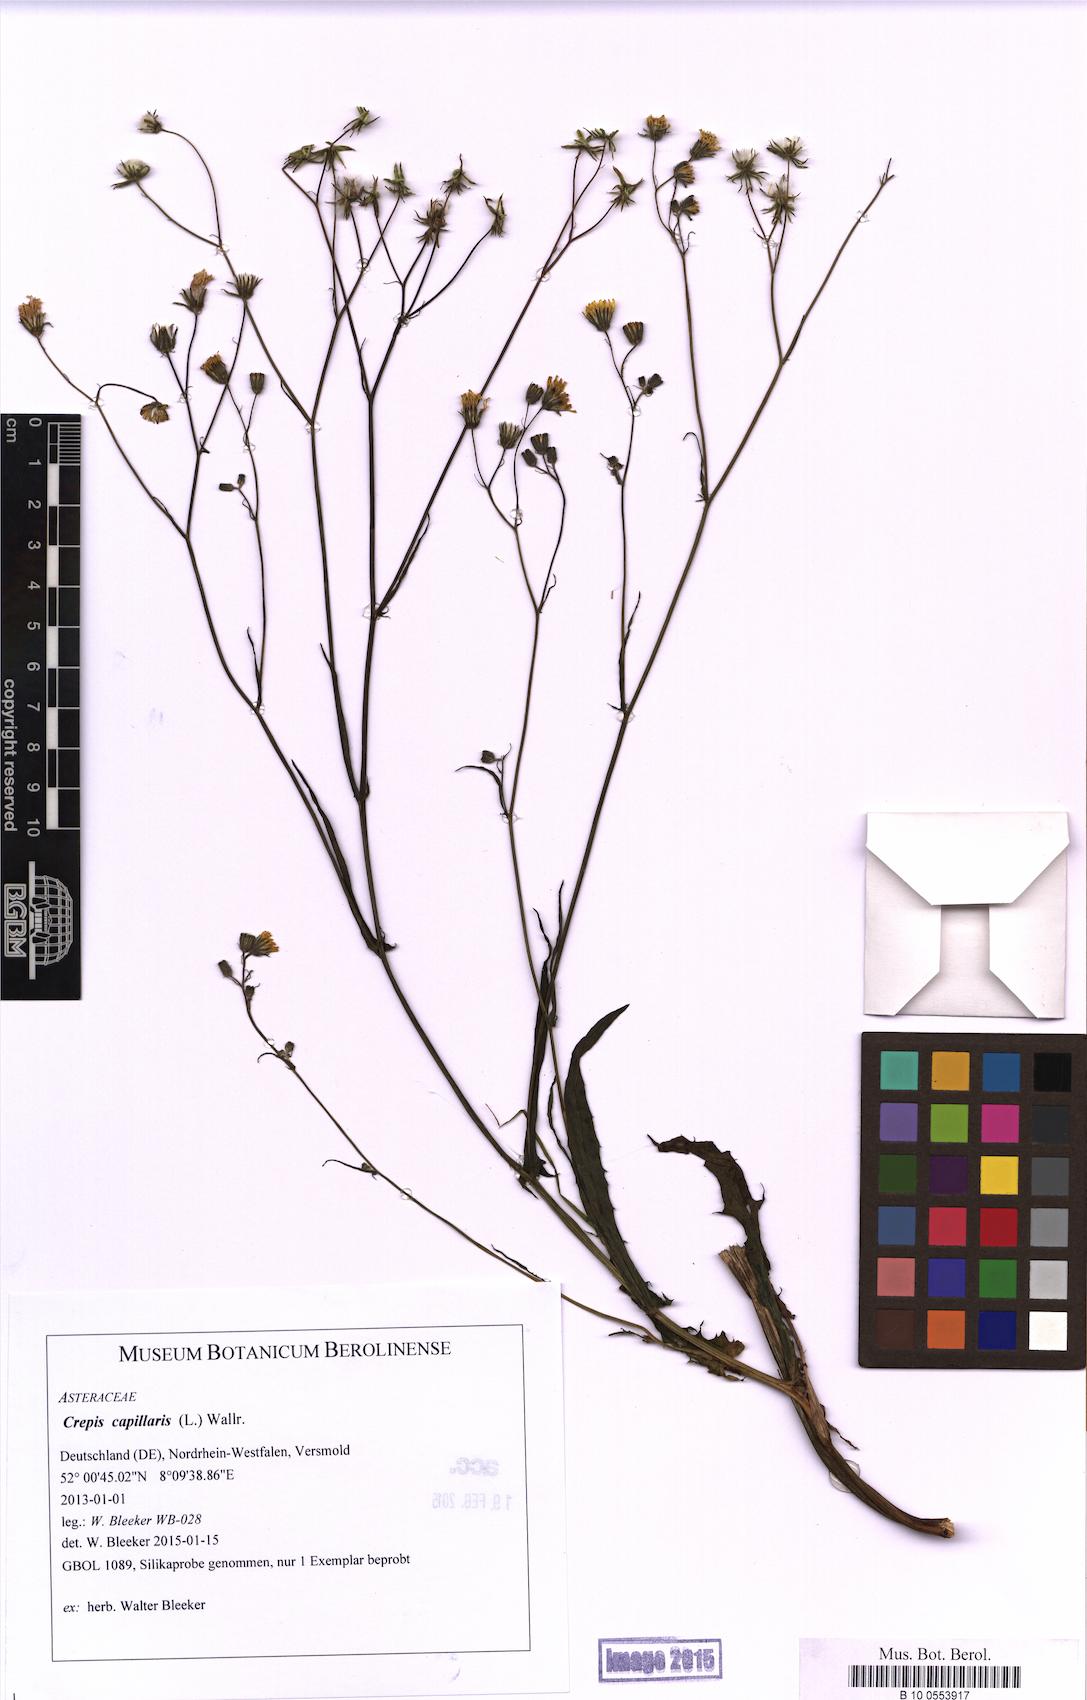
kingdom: Plantae
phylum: Tracheophyta
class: Magnoliopsida
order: Asterales
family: Asteraceae
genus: Crepis
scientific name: Crepis capillaris
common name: Smooth hawksbeard
